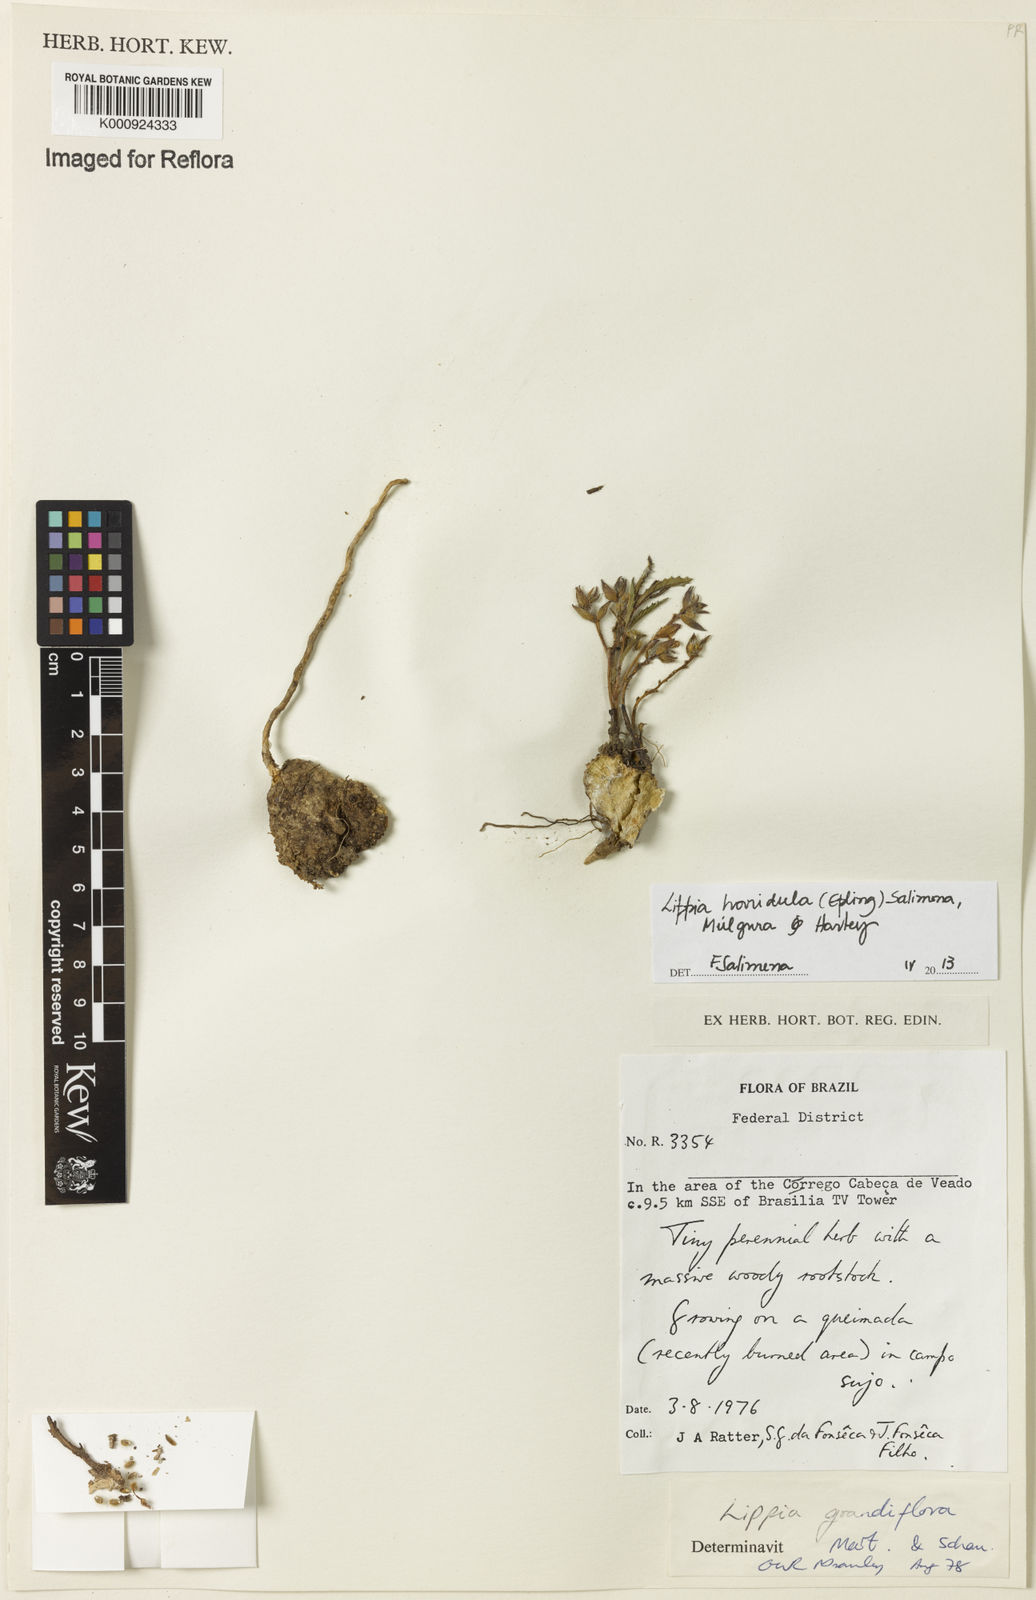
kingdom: Plantae
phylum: Tracheophyta
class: Magnoliopsida
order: Lamiales
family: Verbenaceae
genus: Lippia
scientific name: Lippia
